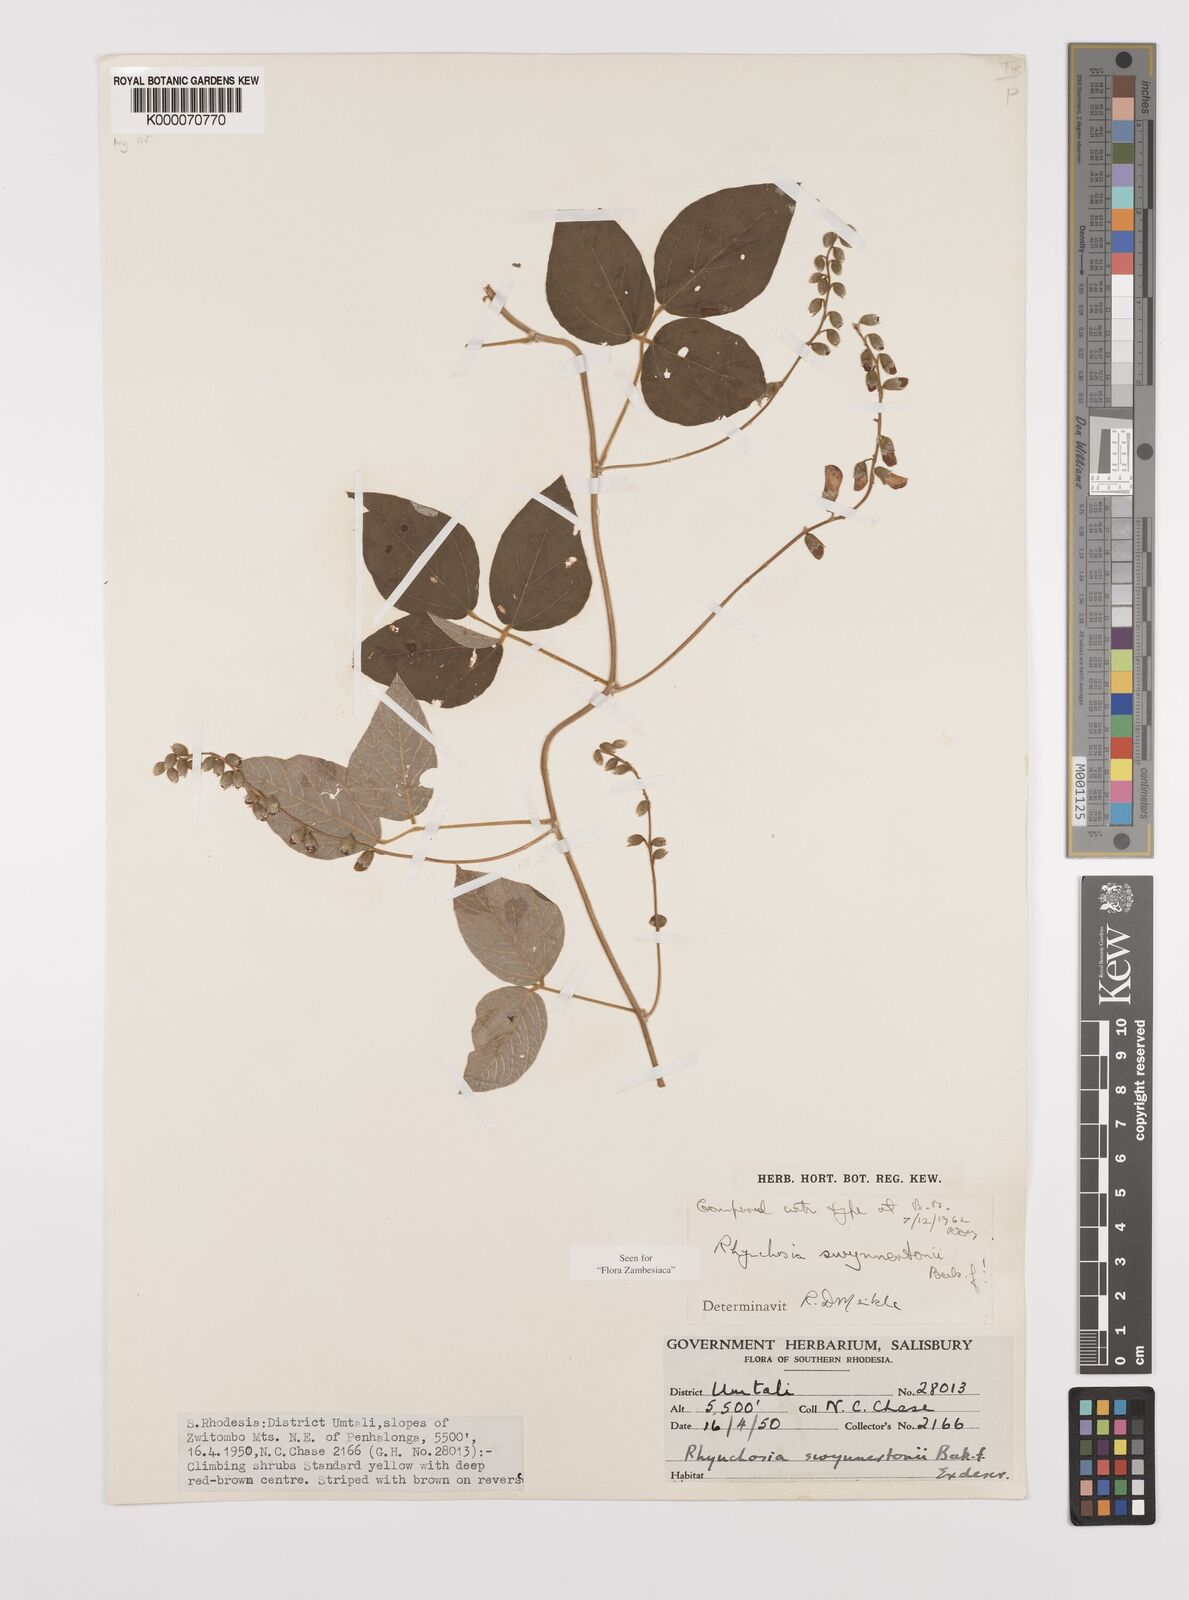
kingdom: Plantae
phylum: Tracheophyta
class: Magnoliopsida
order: Fabales
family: Fabaceae
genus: Rhynchosia
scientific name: Rhynchosia swynnertonii
